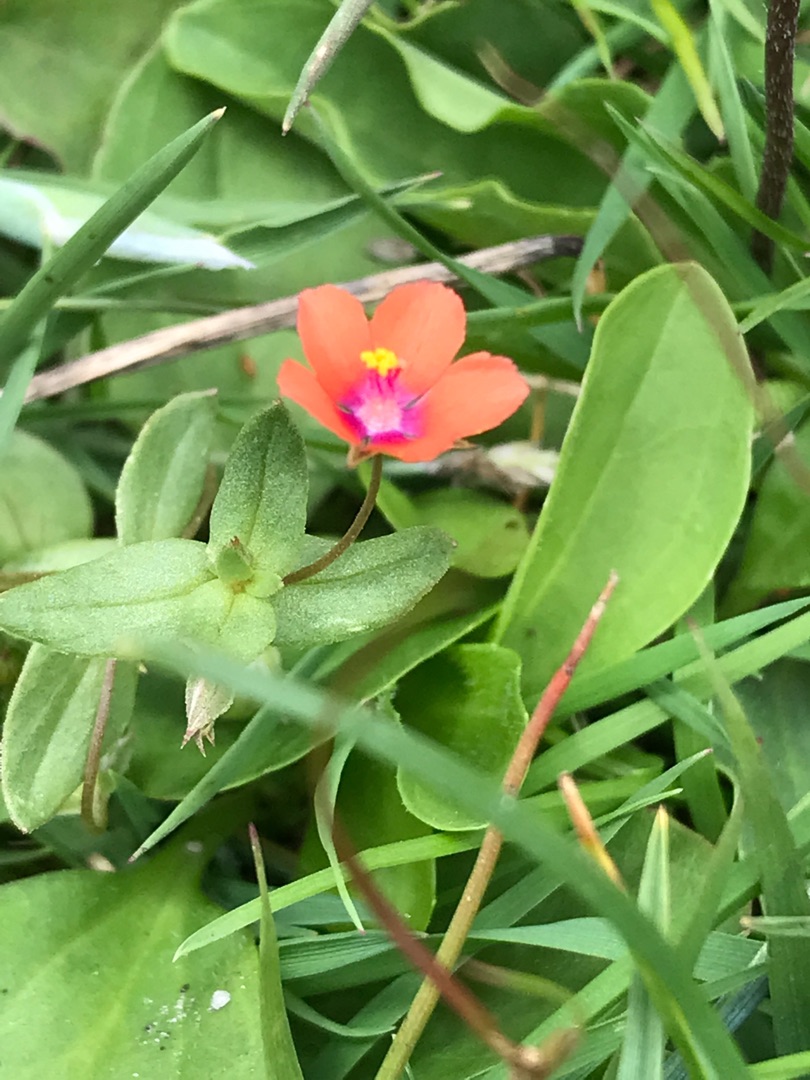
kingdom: Plantae
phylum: Tracheophyta
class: Magnoliopsida
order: Ericales
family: Primulaceae
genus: Lysimachia
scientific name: Lysimachia arvensis
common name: Rød arve
